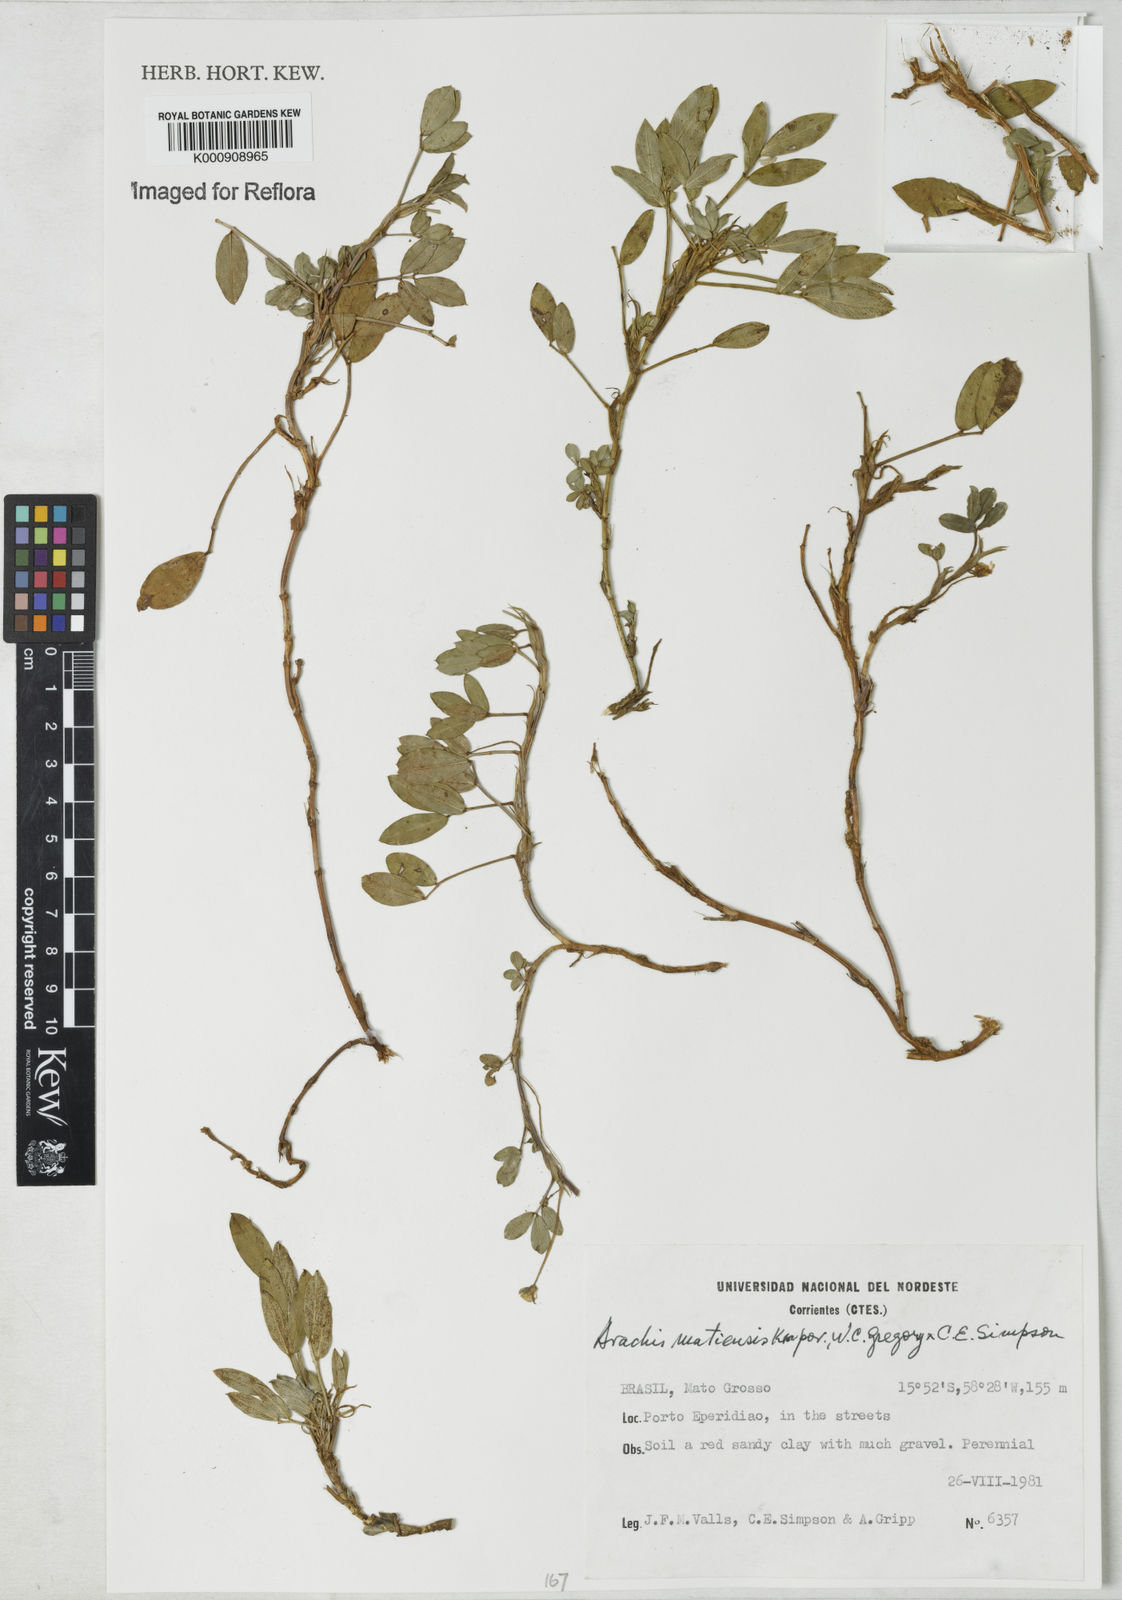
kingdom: Plantae
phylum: Tracheophyta
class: Magnoliopsida
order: Fabales
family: Fabaceae
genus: Arachis
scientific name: Arachis matiensis
